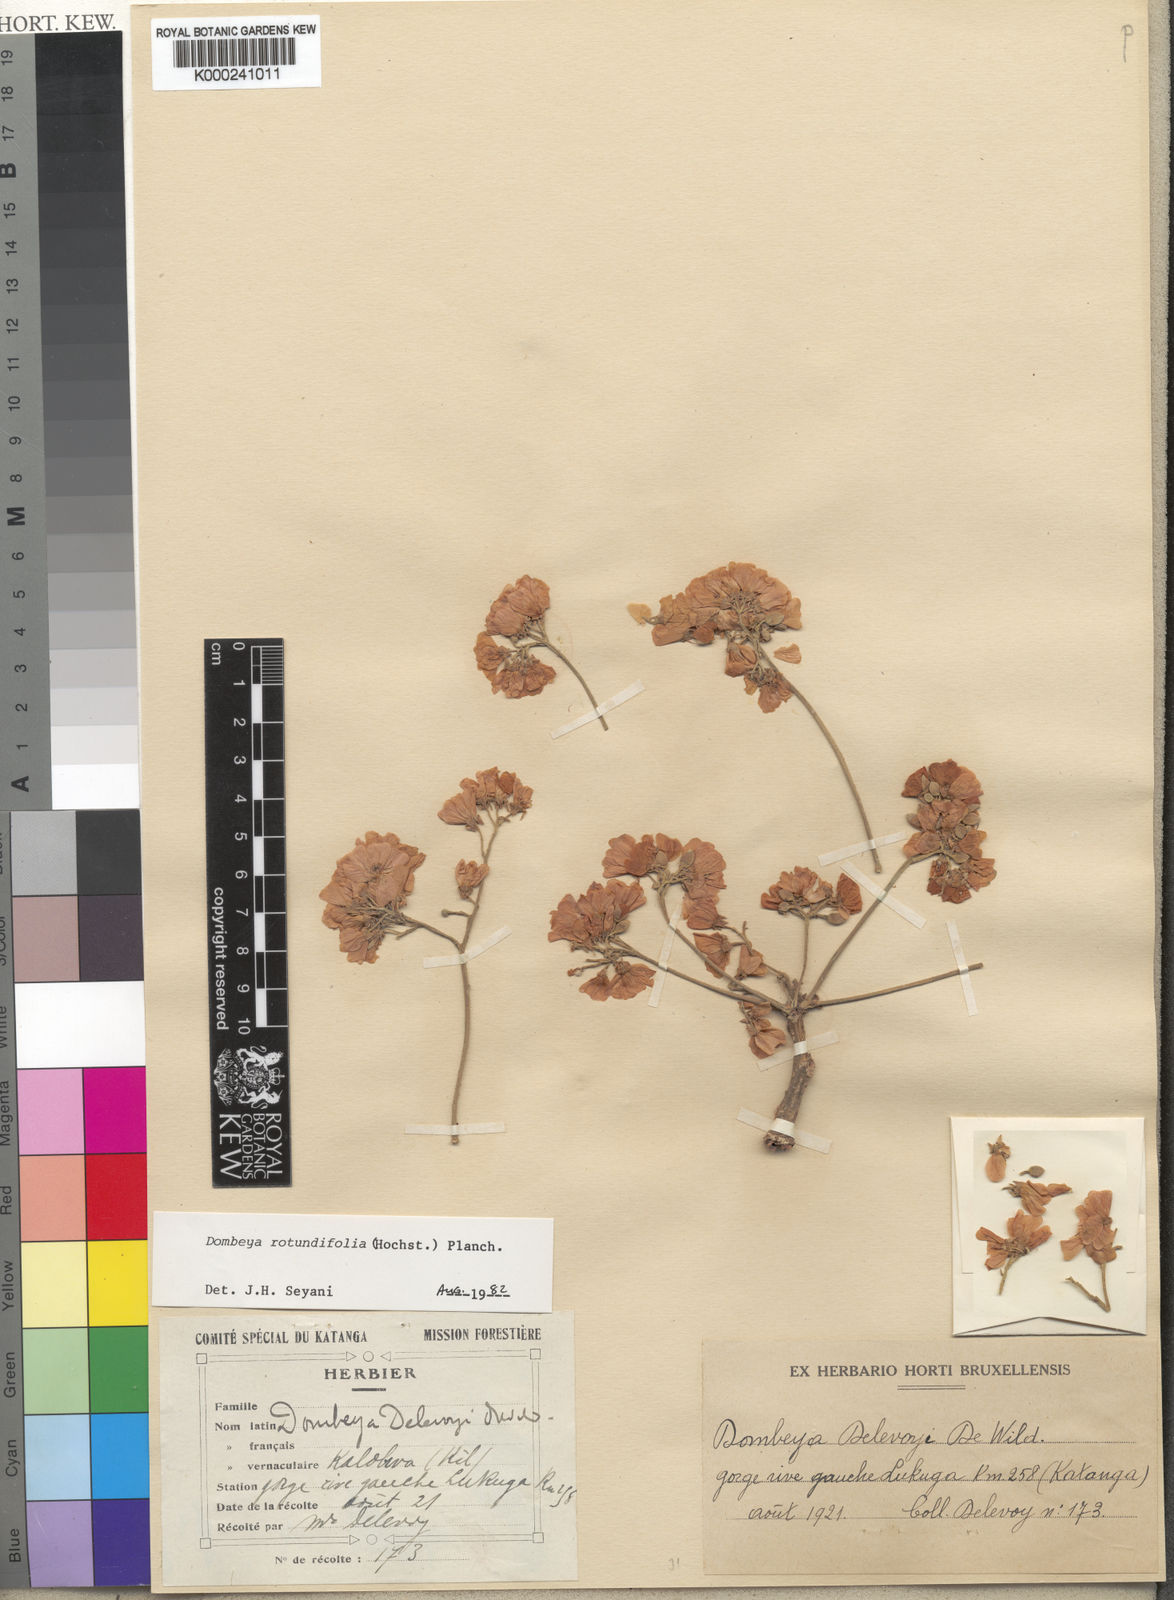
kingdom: Plantae
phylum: Tracheophyta
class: Magnoliopsida
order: Malvales
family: Malvaceae
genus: Dombeya
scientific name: Dombeya rotundifolia
